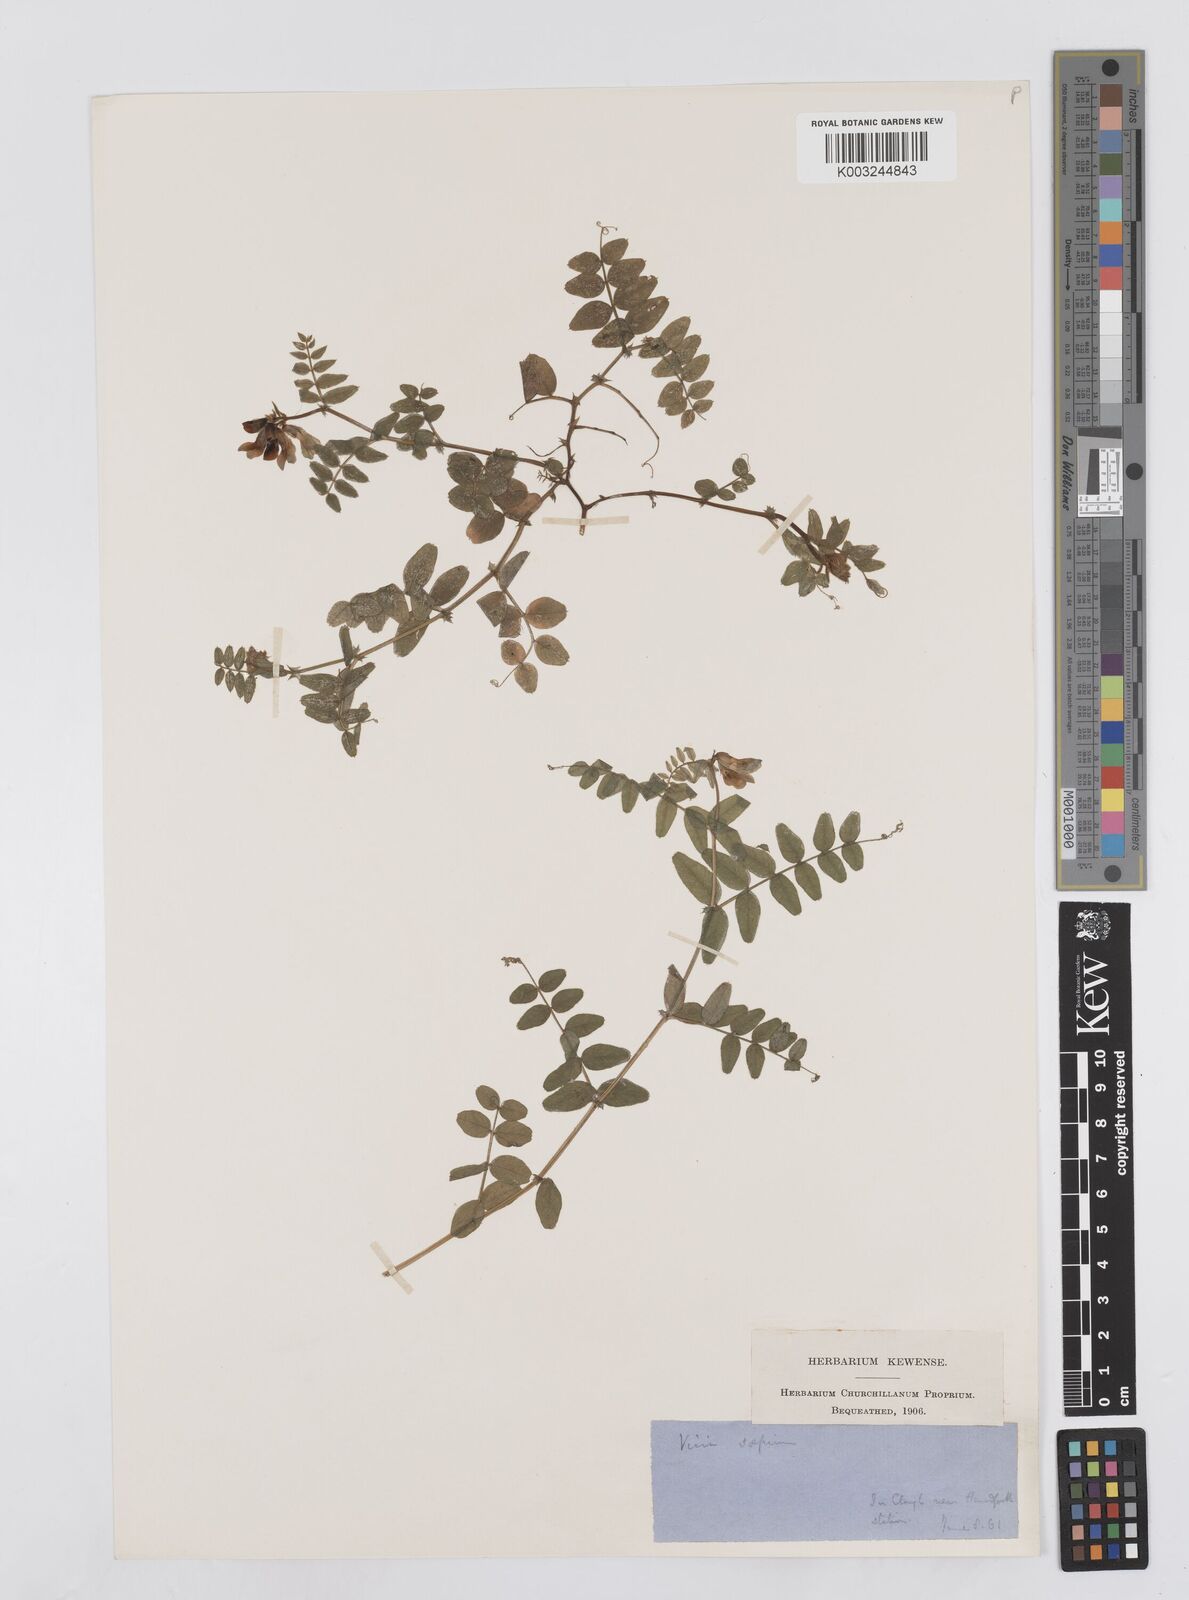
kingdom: Plantae
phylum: Tracheophyta
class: Magnoliopsida
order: Fabales
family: Fabaceae
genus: Vicia
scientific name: Vicia sepium
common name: Bush vetch
